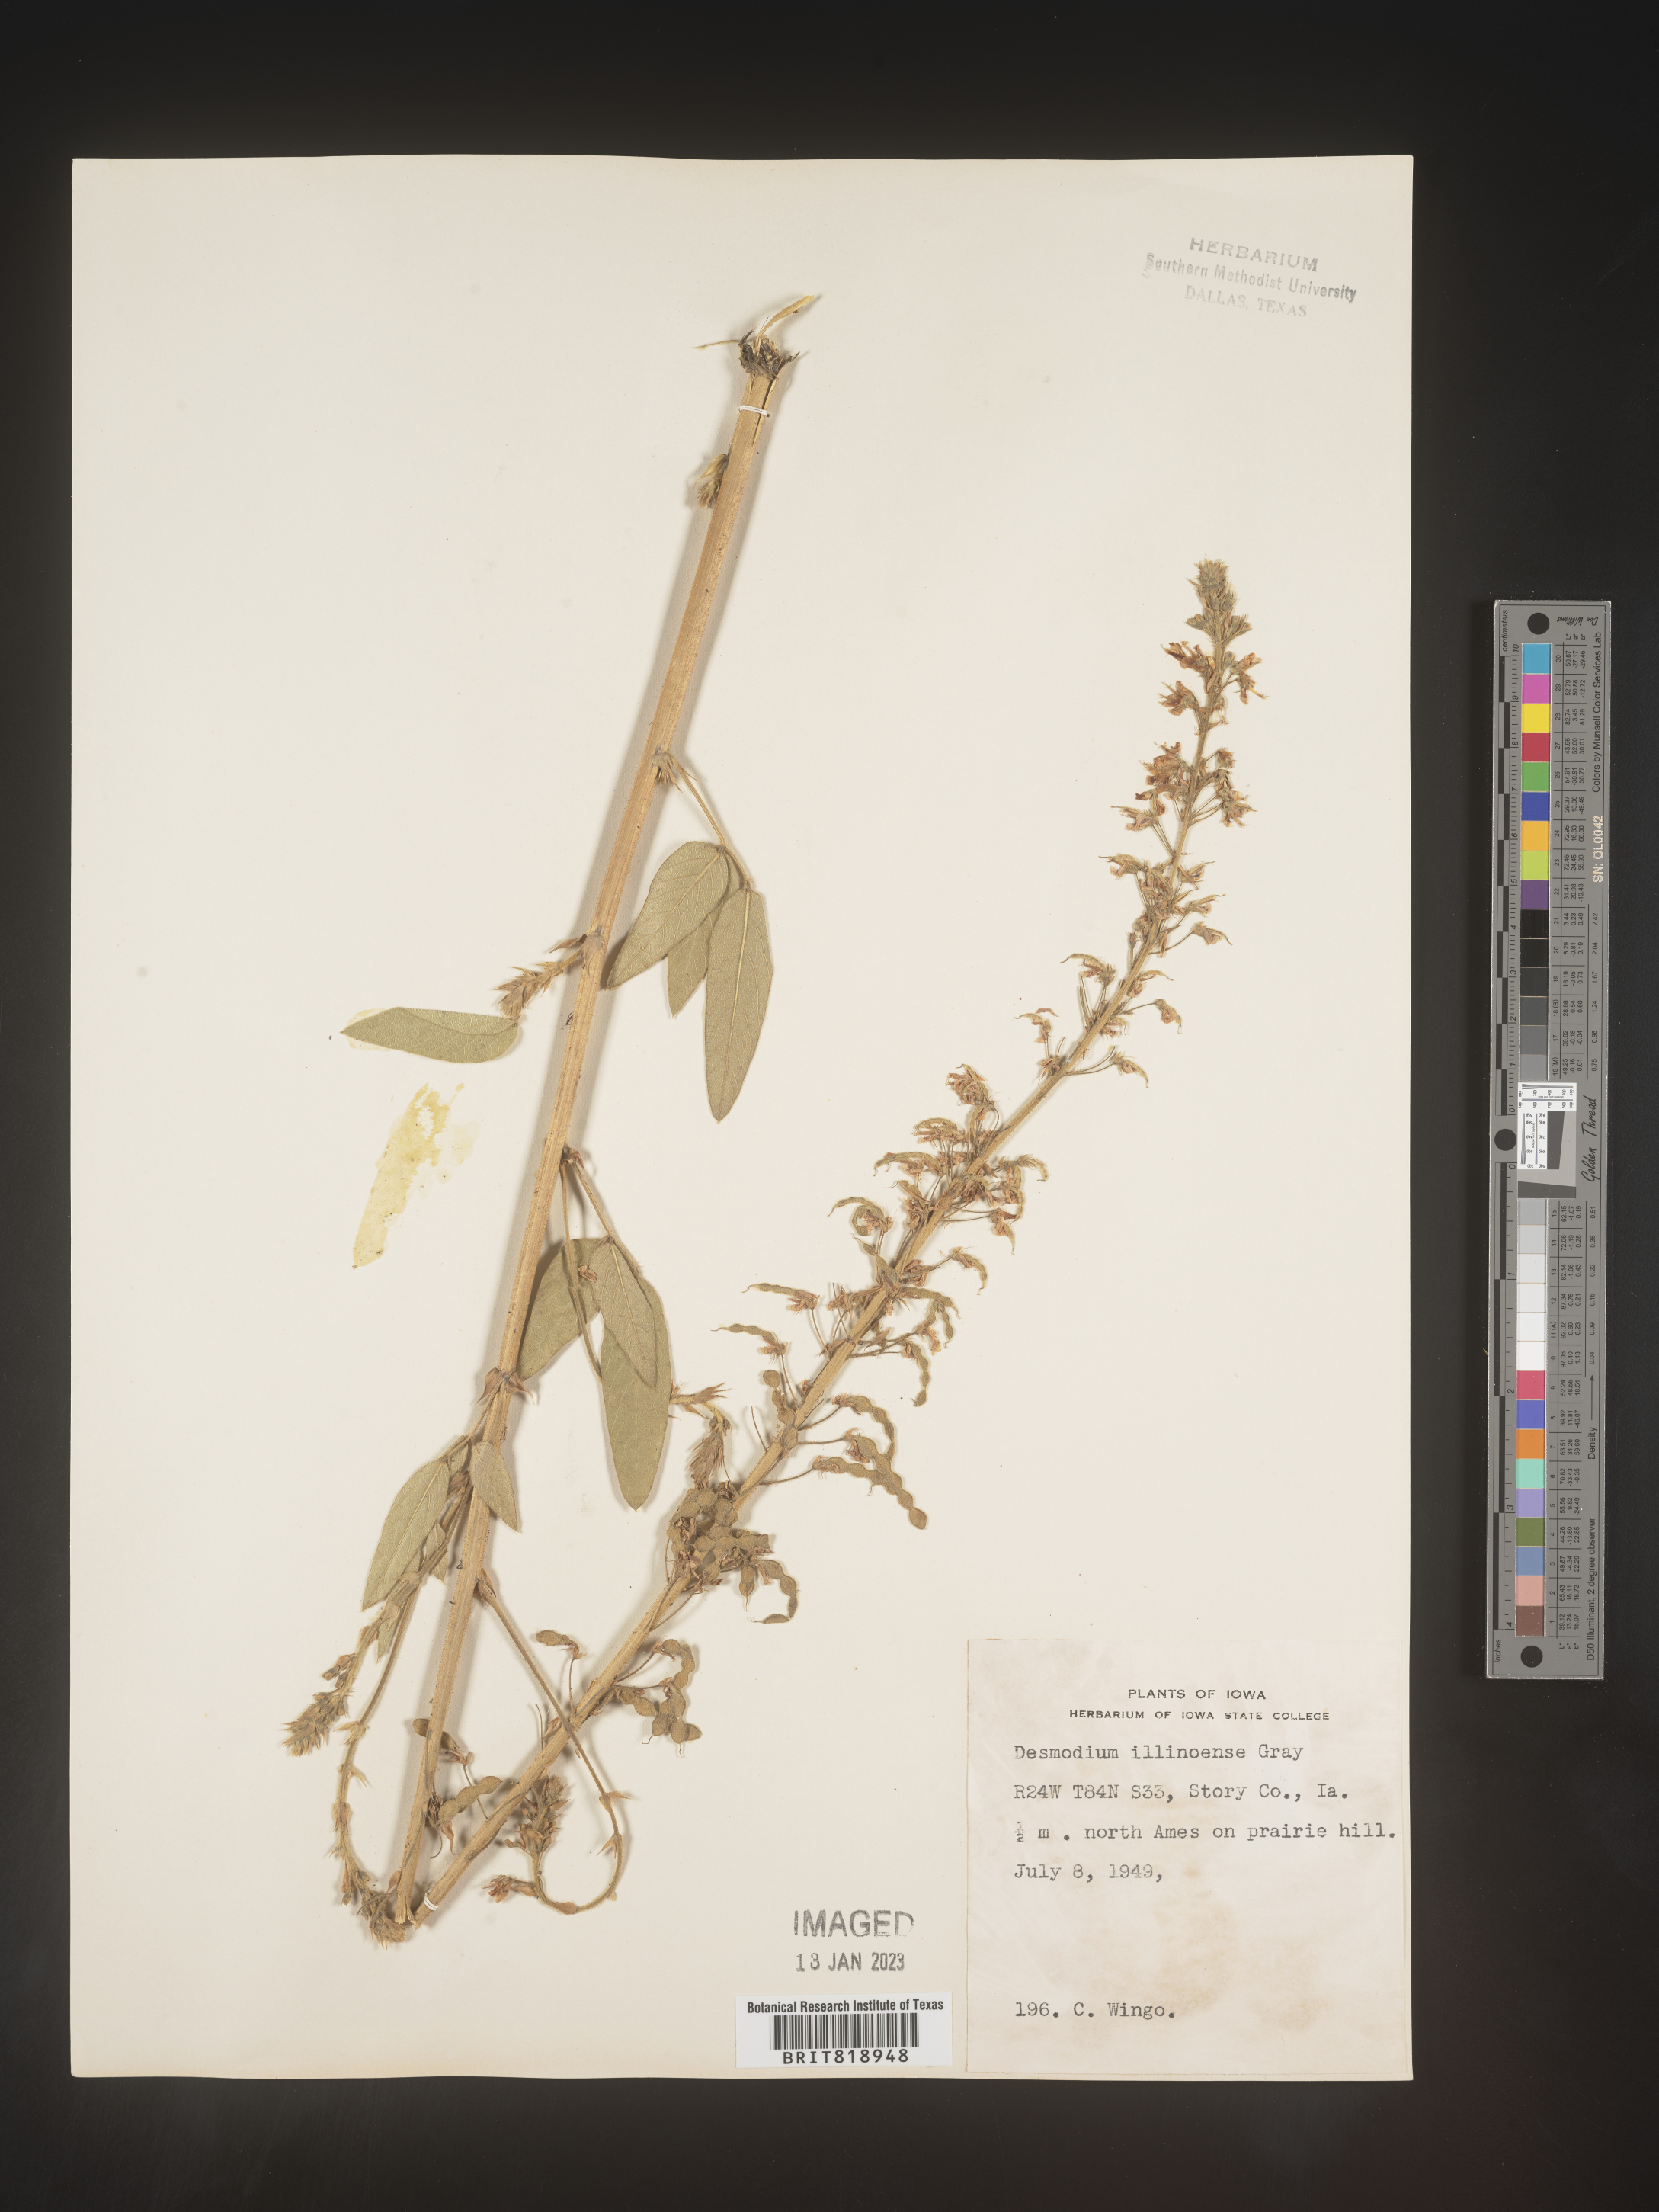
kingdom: Plantae
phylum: Tracheophyta
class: Magnoliopsida
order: Fabales
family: Fabaceae
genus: Desmodium
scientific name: Desmodium illinoense
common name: Illinois tick-clover
